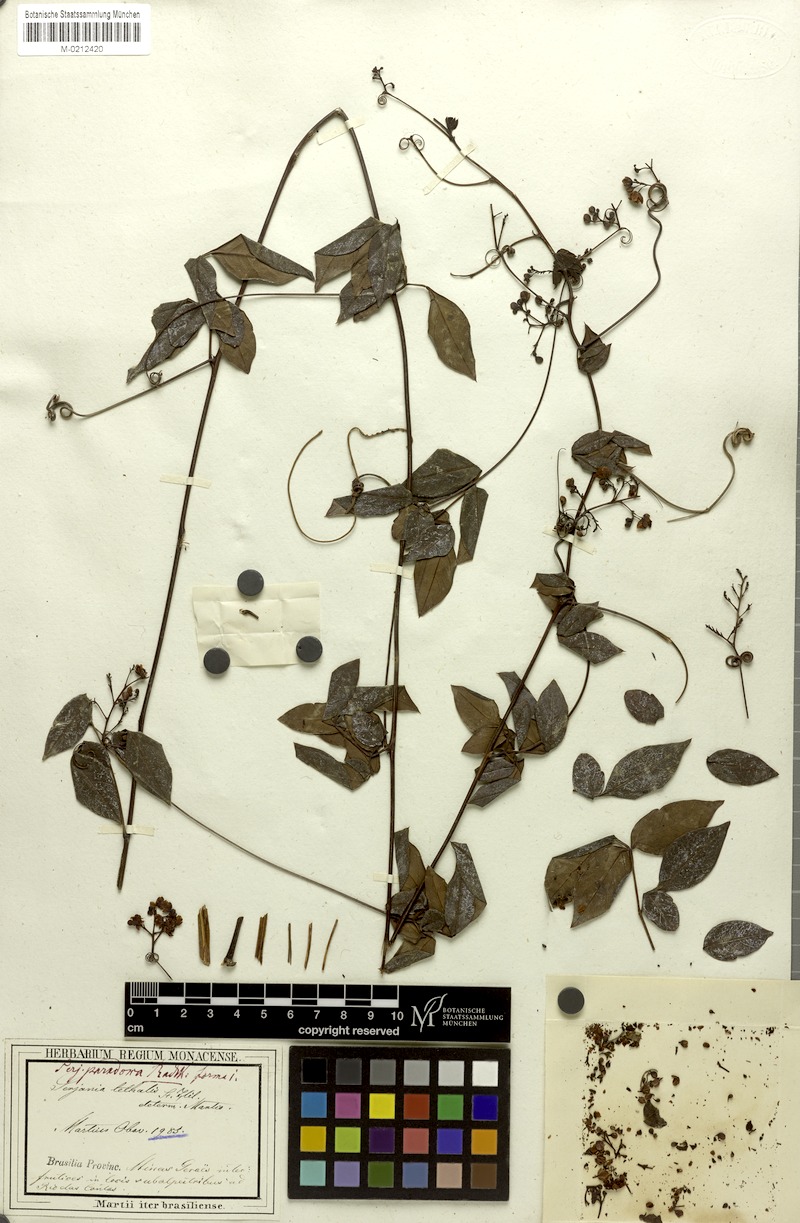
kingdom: Plantae
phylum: Tracheophyta
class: Magnoliopsida
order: Sapindales
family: Sapindaceae
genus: Serjania
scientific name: Serjania paradoxa
